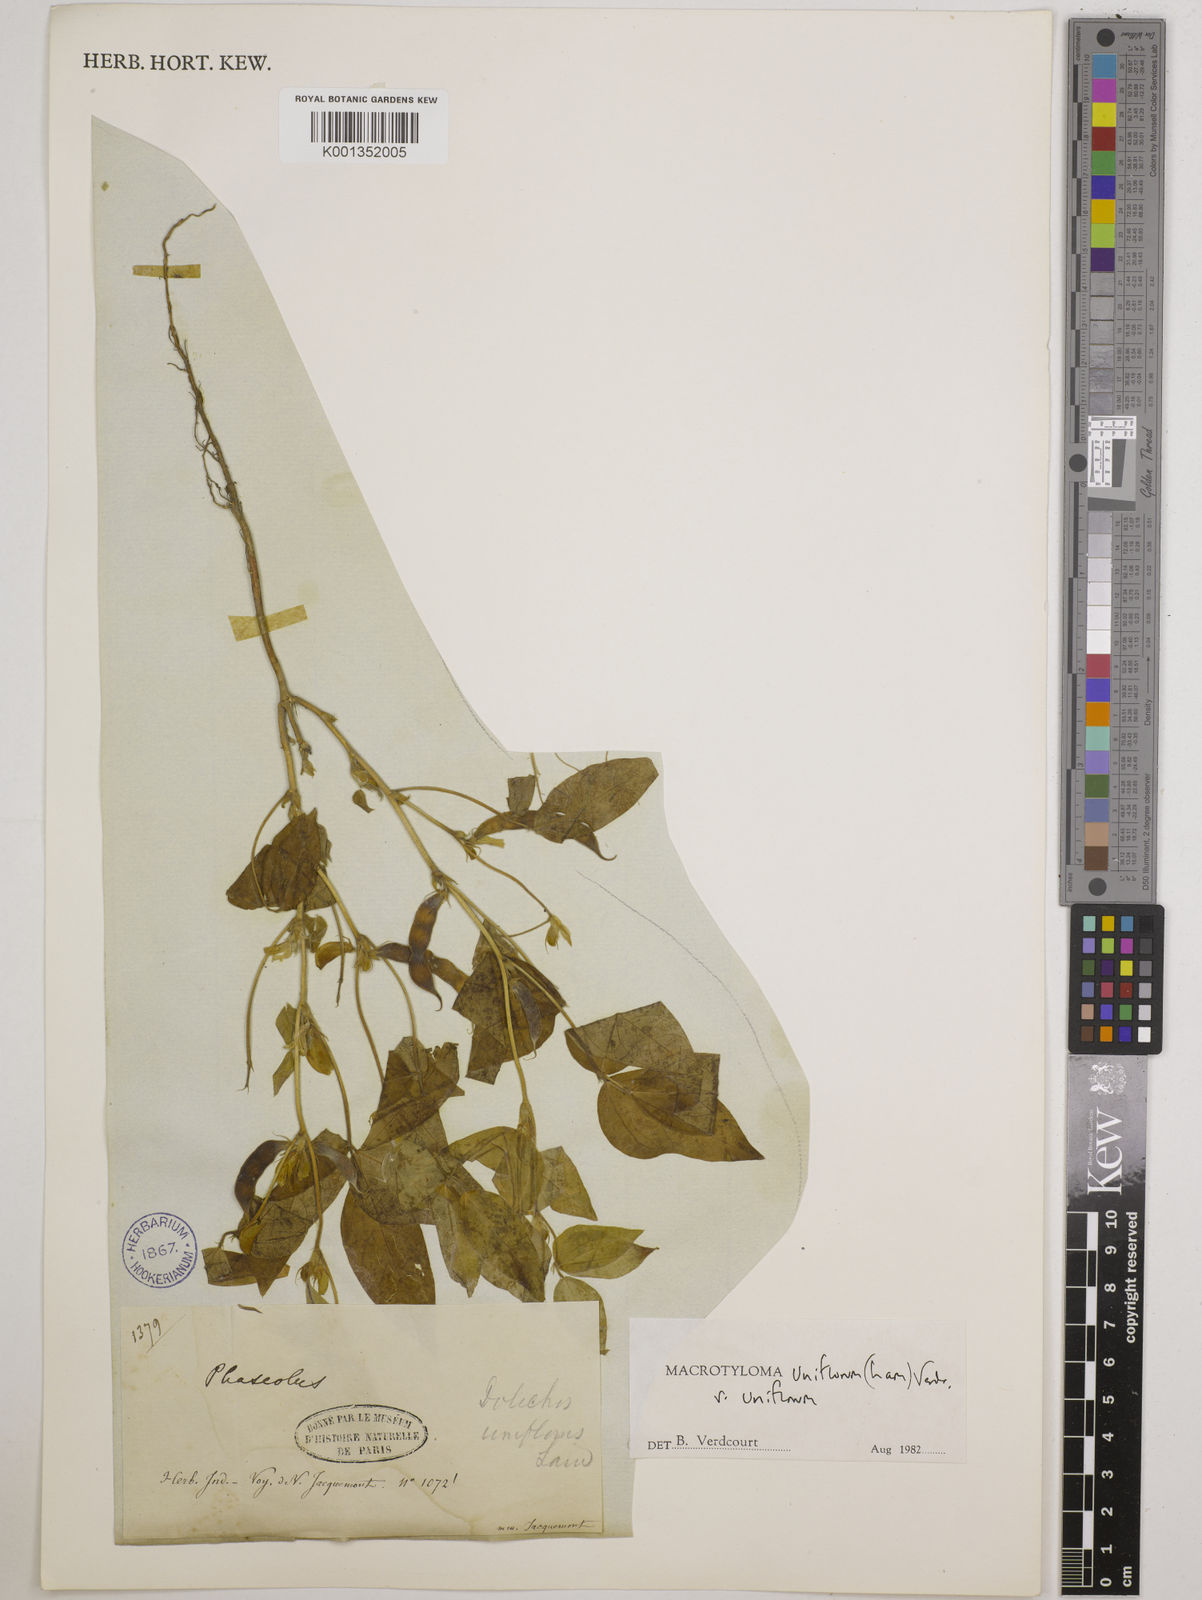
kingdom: Plantae
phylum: Tracheophyta
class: Magnoliopsida
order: Fabales
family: Fabaceae
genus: Macrotyloma
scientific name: Macrotyloma uniflorum
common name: Horse gram
